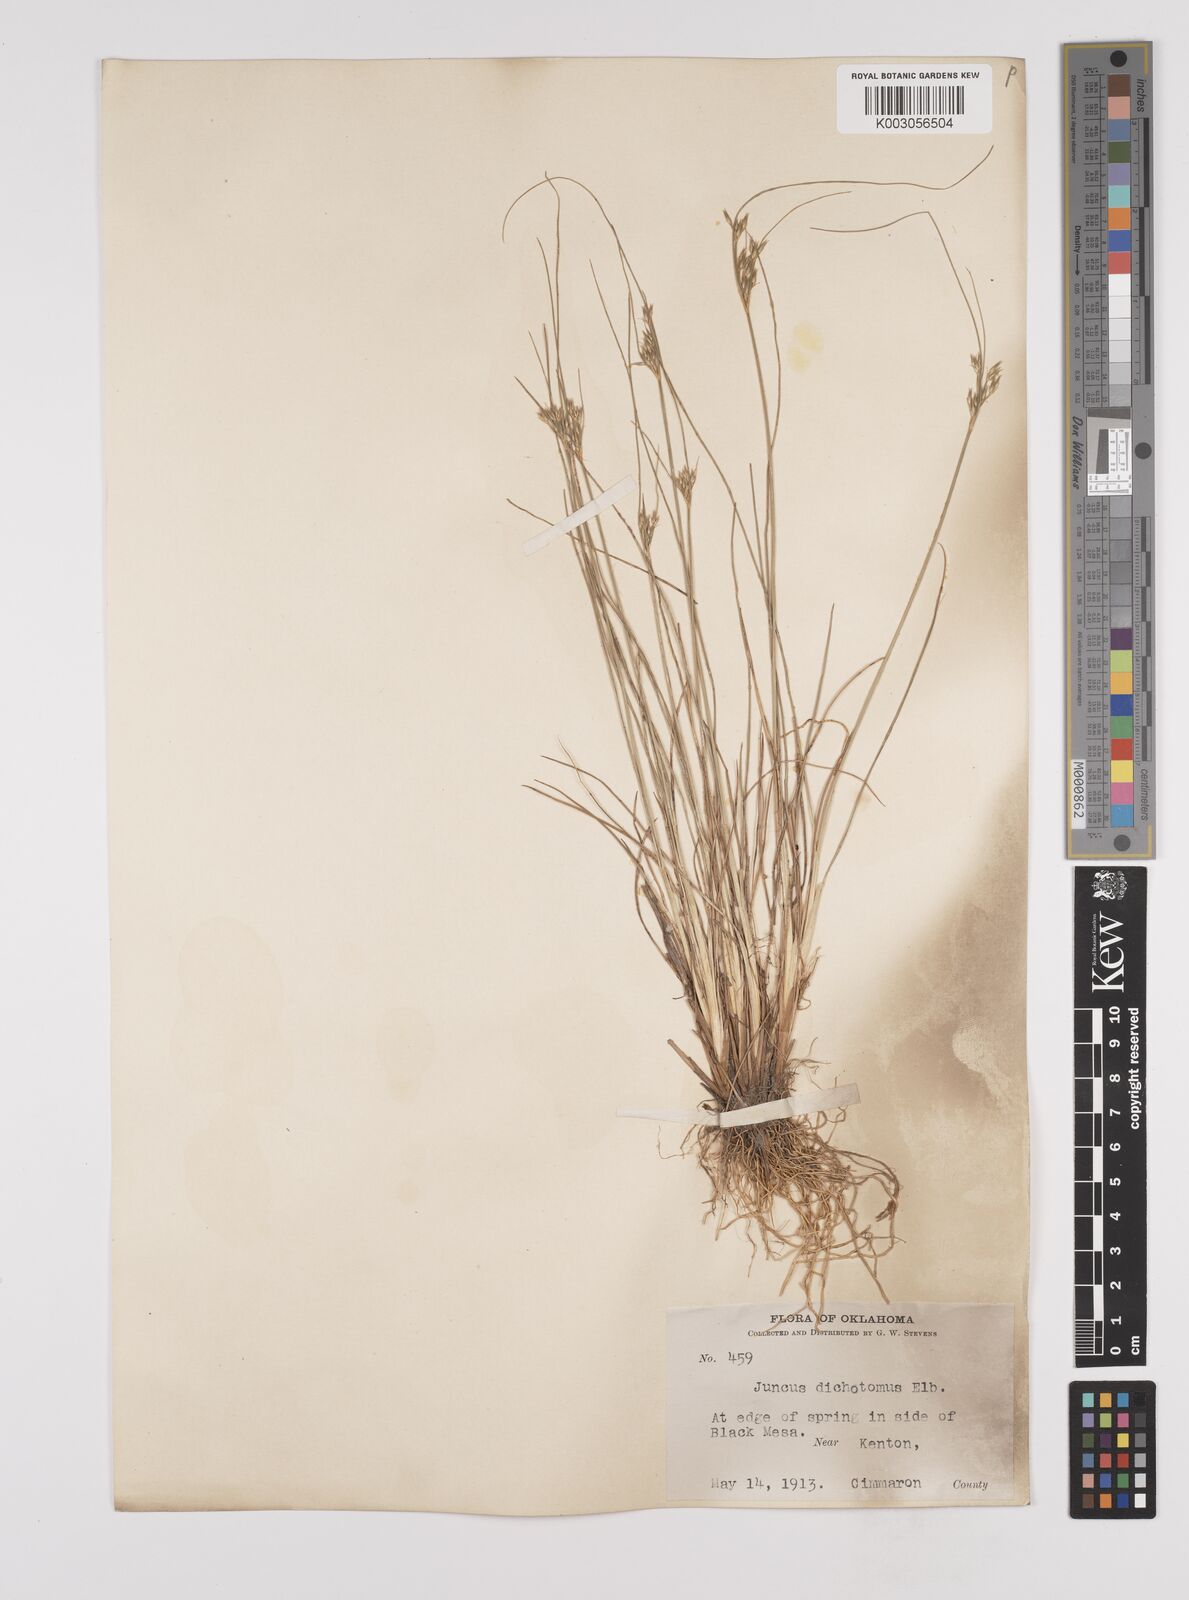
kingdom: Plantae
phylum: Tracheophyta
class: Liliopsida
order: Poales
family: Juncaceae
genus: Juncus
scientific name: Juncus dichotomus
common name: Forked rush
